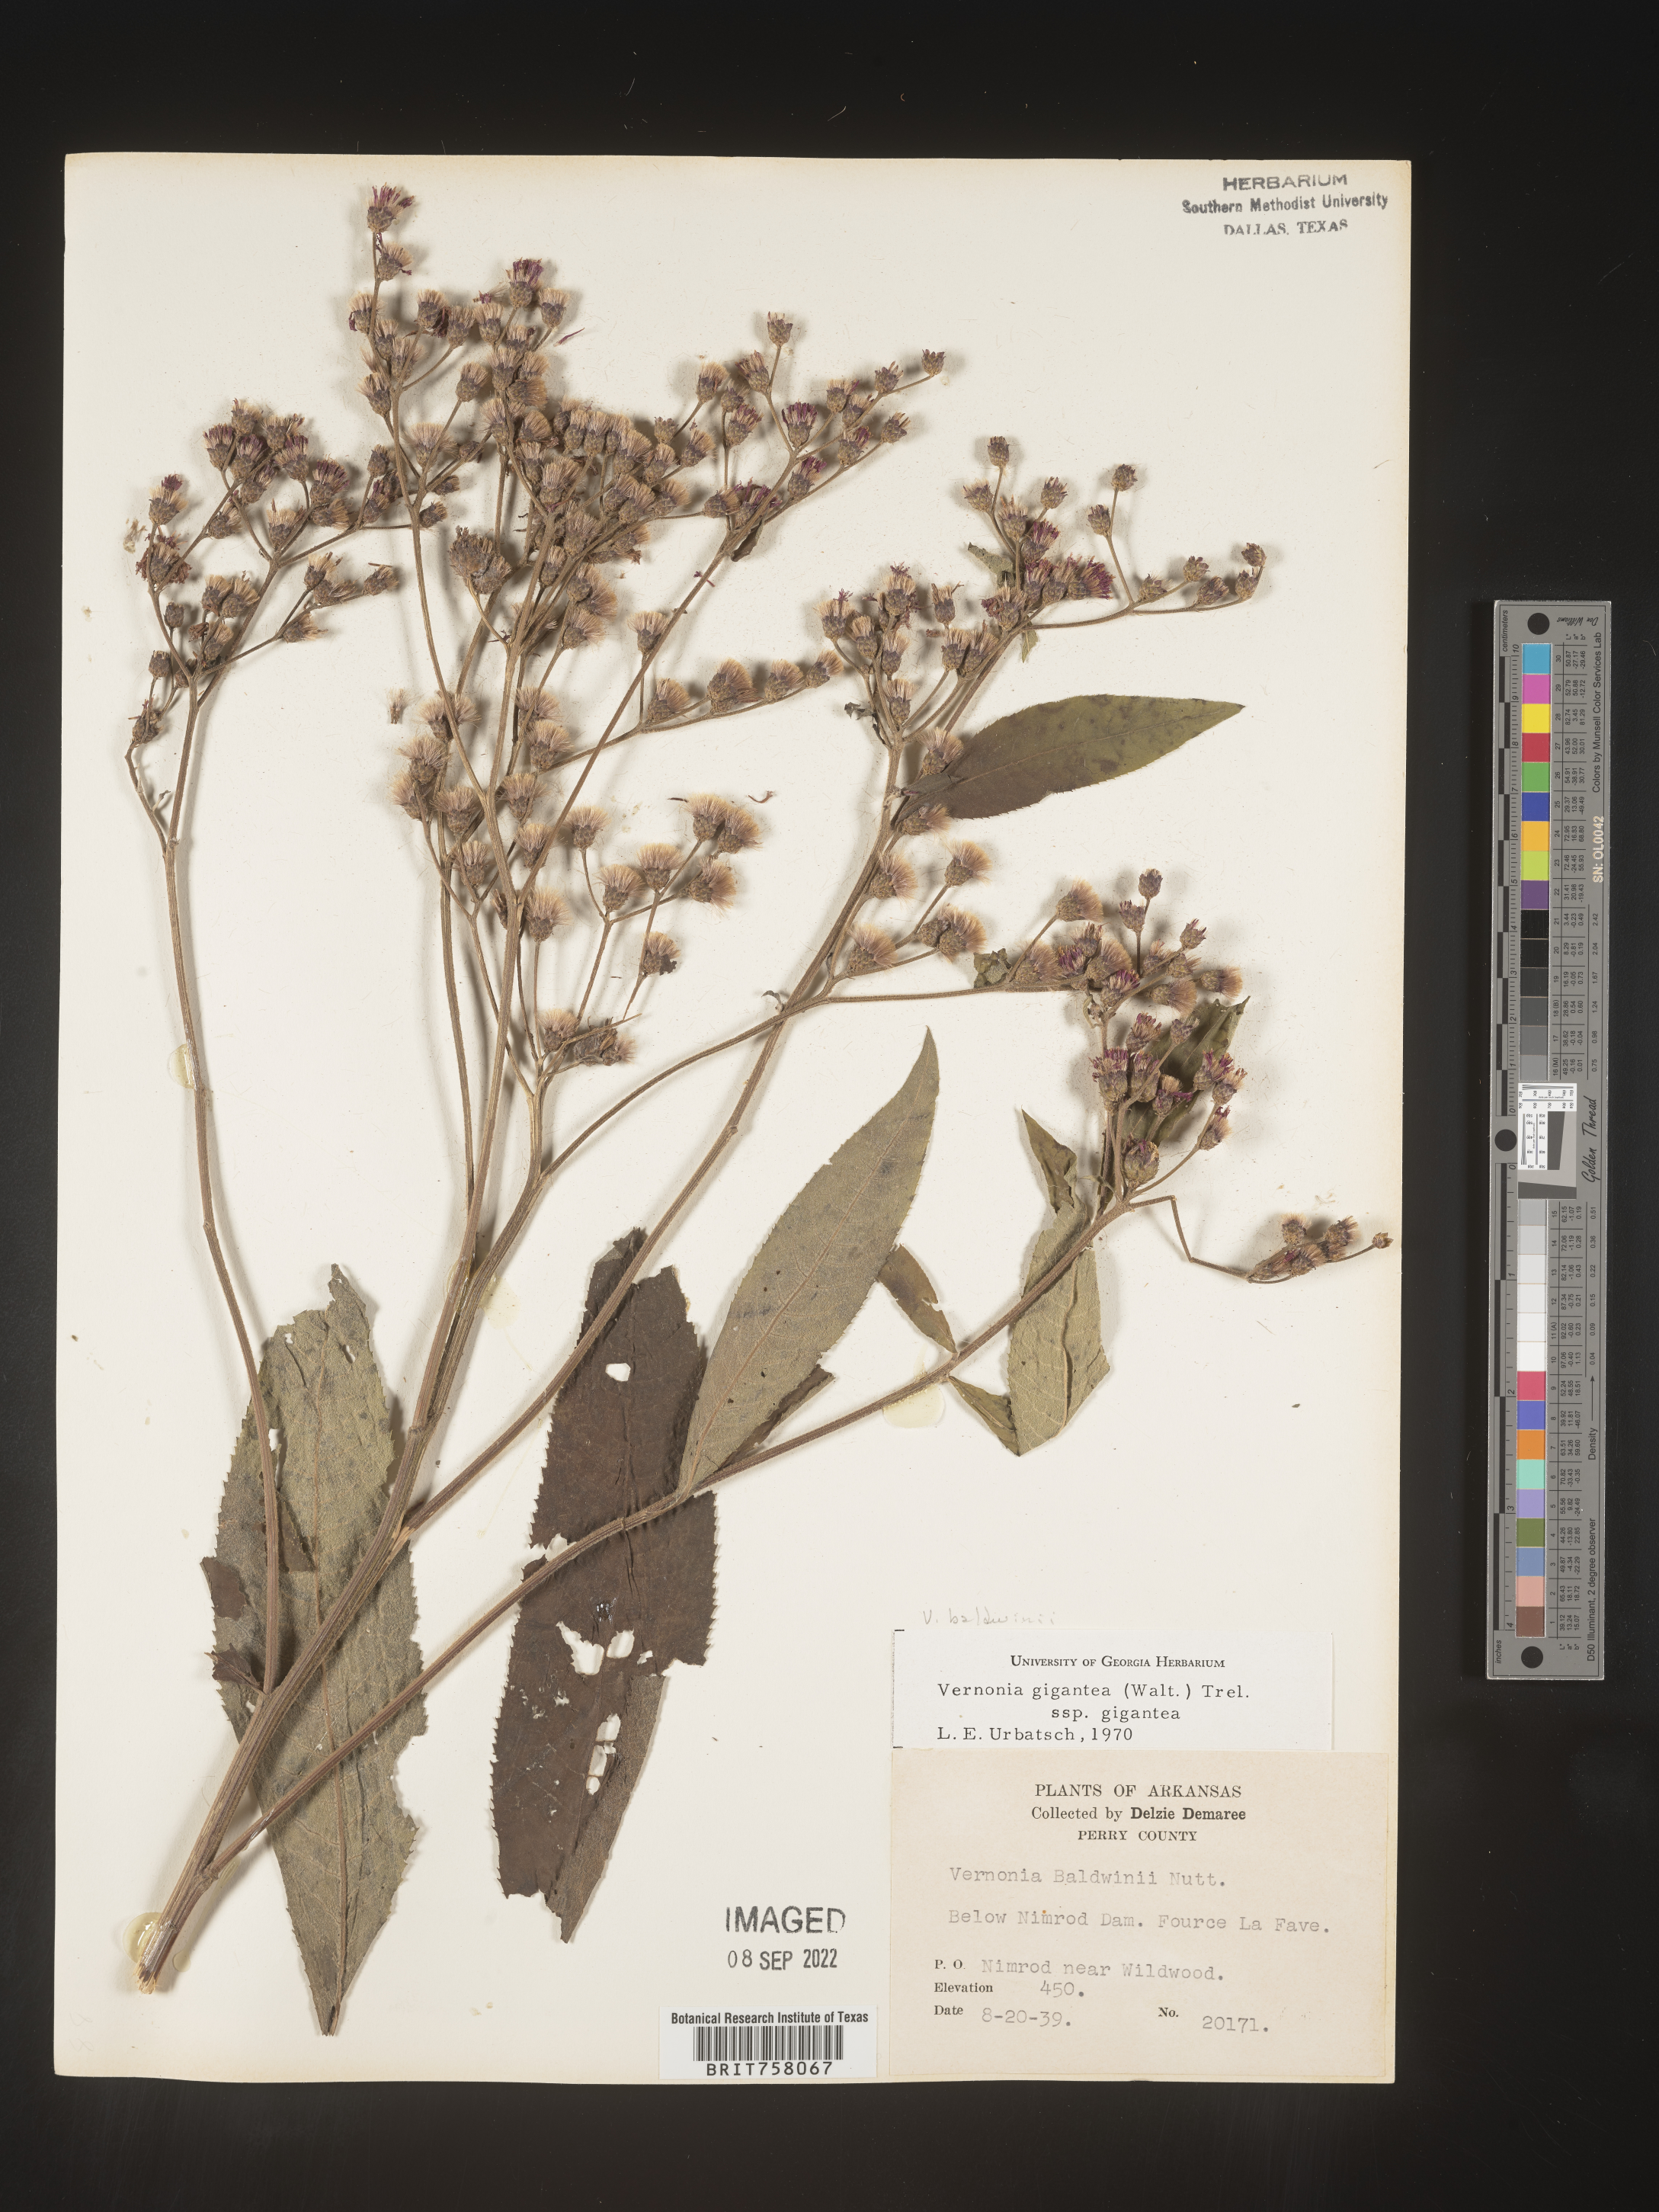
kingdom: Plantae
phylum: Tracheophyta
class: Magnoliopsida
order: Asterales
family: Asteraceae
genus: Vernonia
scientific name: Vernonia baldwinii
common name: Western ironweed
